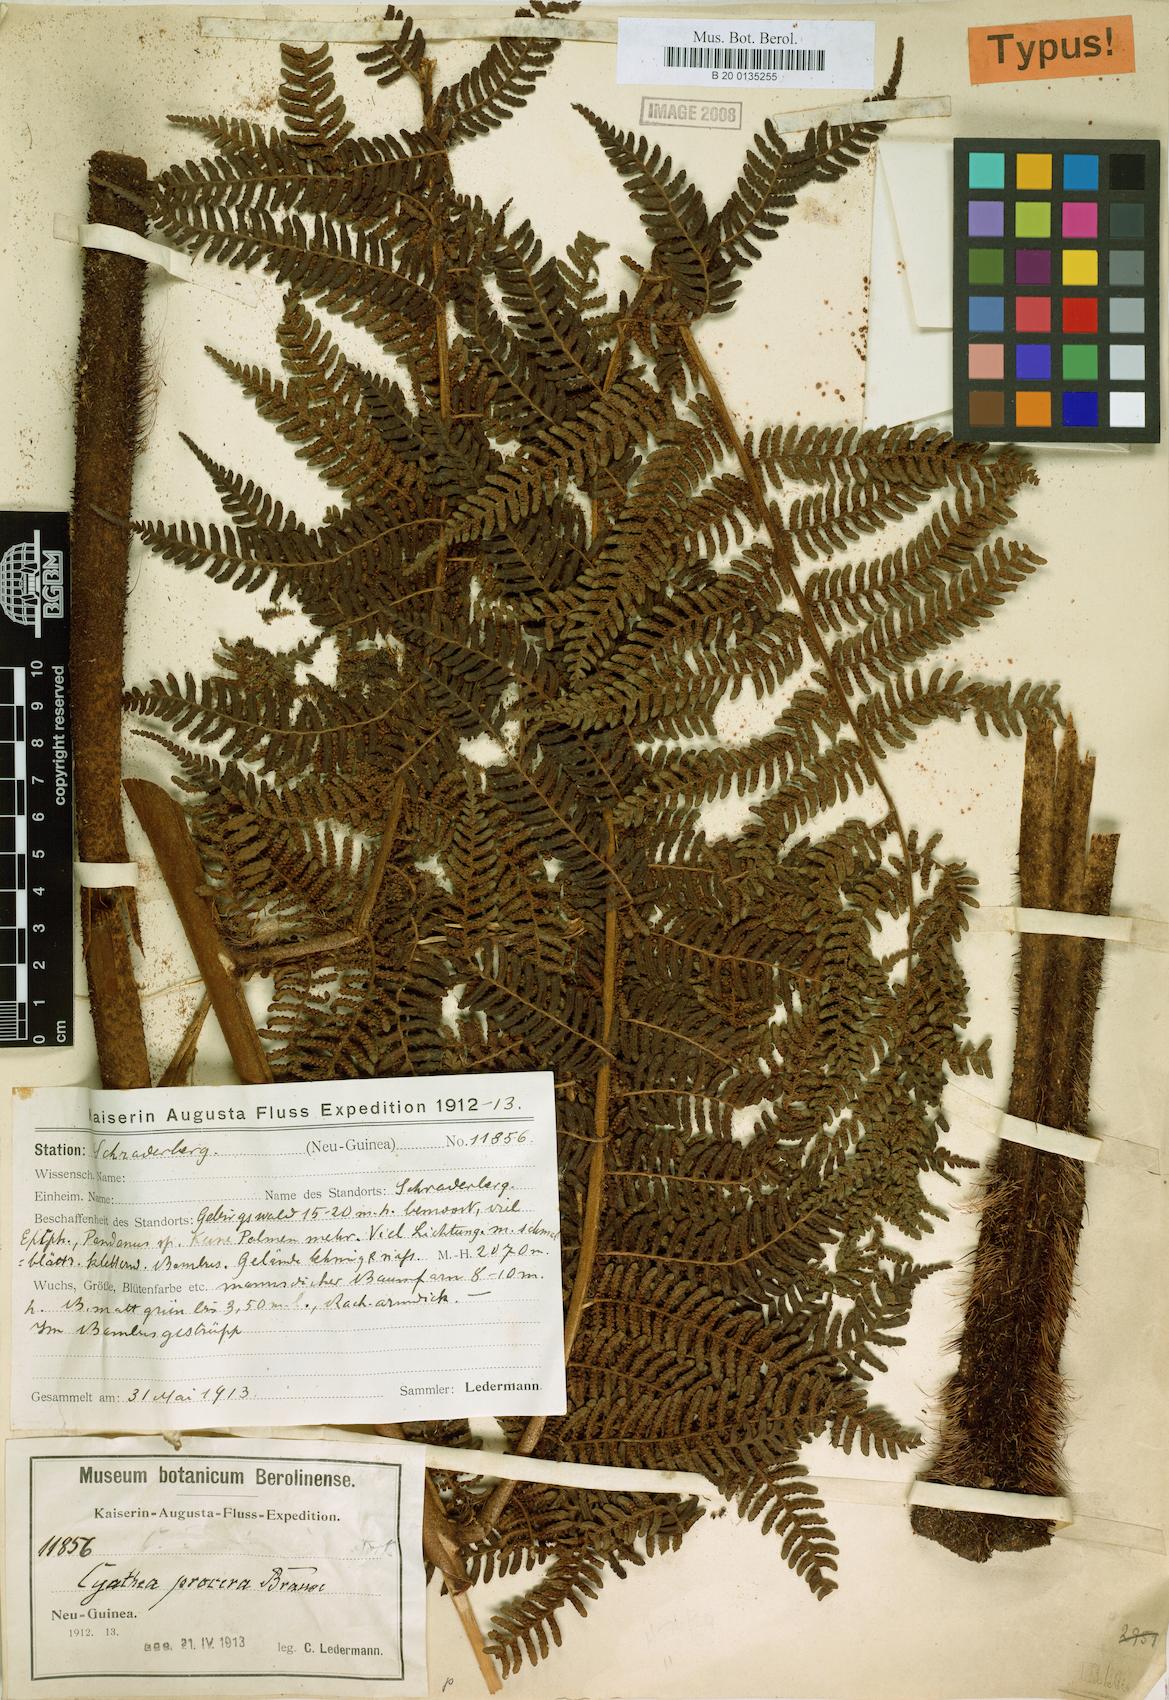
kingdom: Plantae
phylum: Tracheophyta
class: Polypodiopsida
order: Cyatheales
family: Cyatheaceae
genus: Sphaeropteris
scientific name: Sphaeropteris procera
